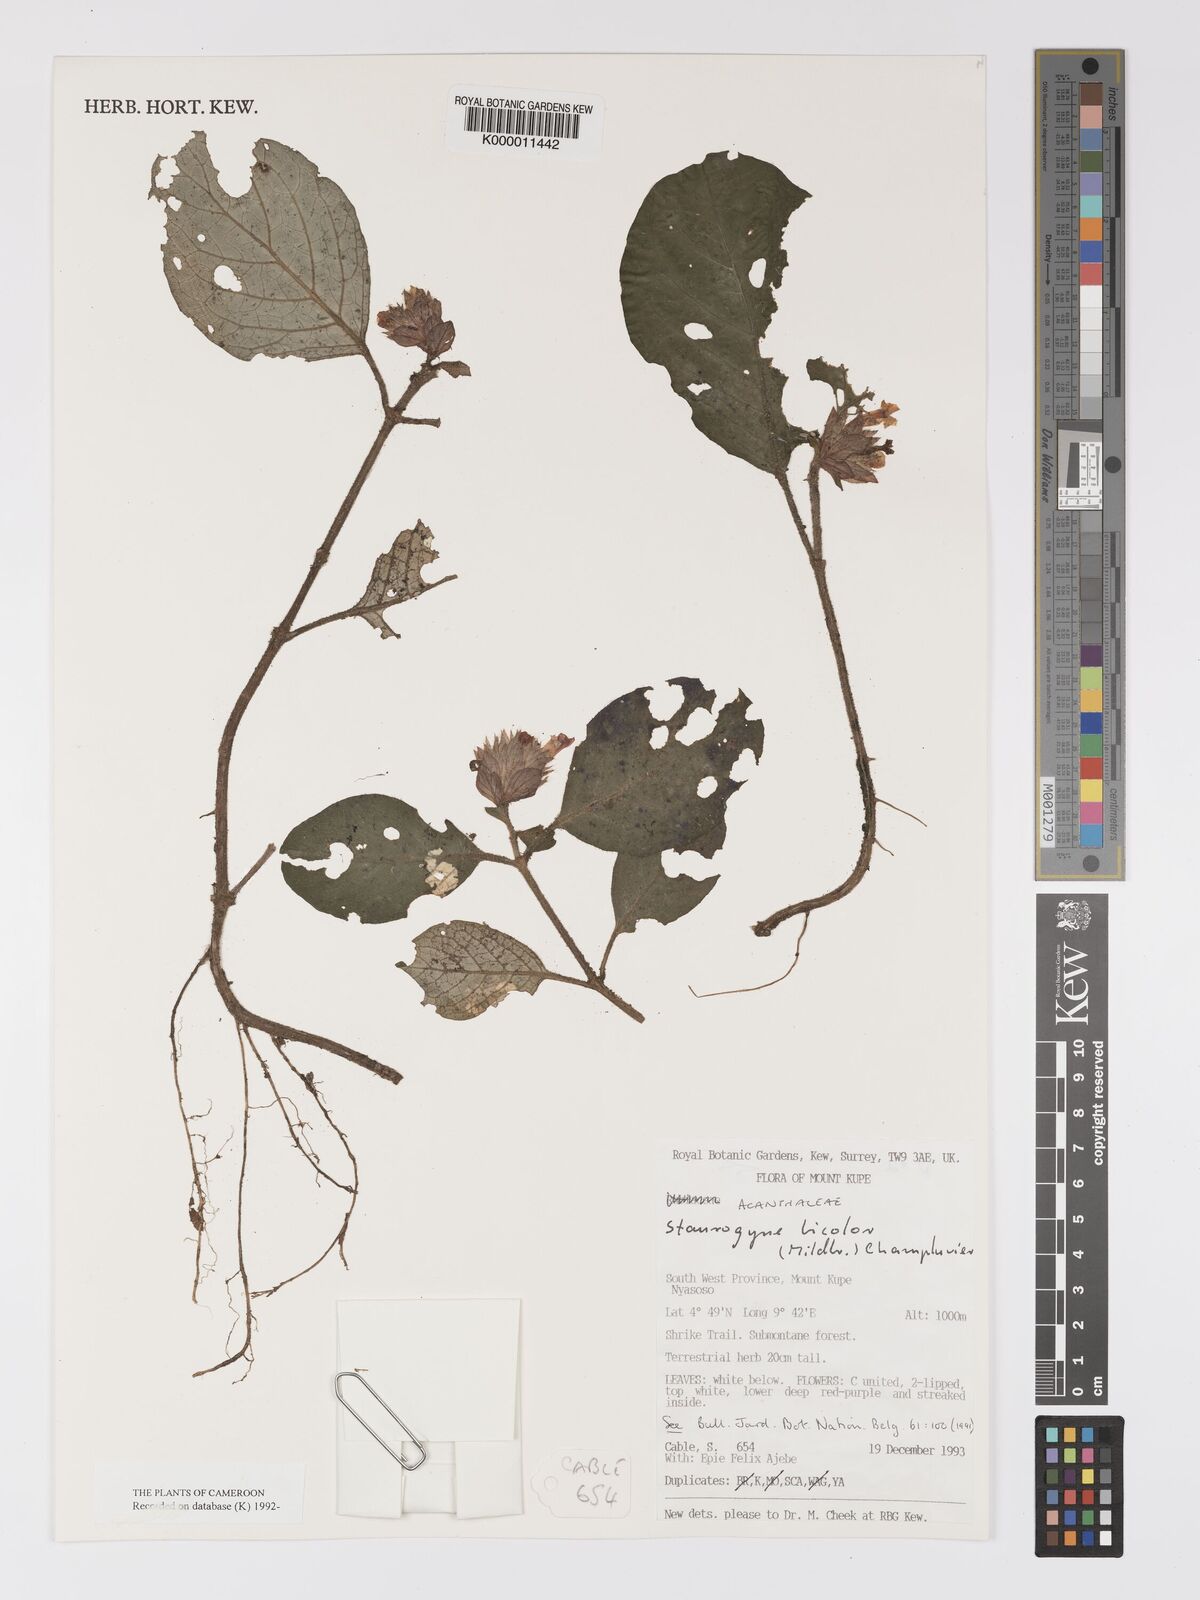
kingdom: Plantae
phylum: Tracheophyta
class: Magnoliopsida
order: Lamiales
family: Acanthaceae
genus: Staurogyne
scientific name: Staurogyne bicolor
